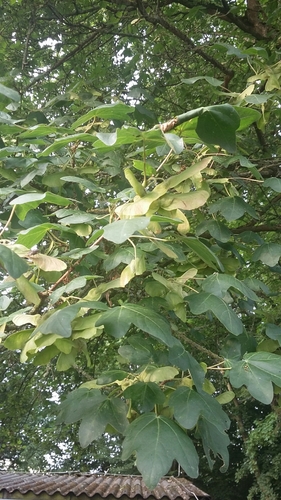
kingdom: Plantae
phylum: Tracheophyta
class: Magnoliopsida
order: Sapindales
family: Sapindaceae
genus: Acer
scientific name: Acer campestre
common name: Field maple
